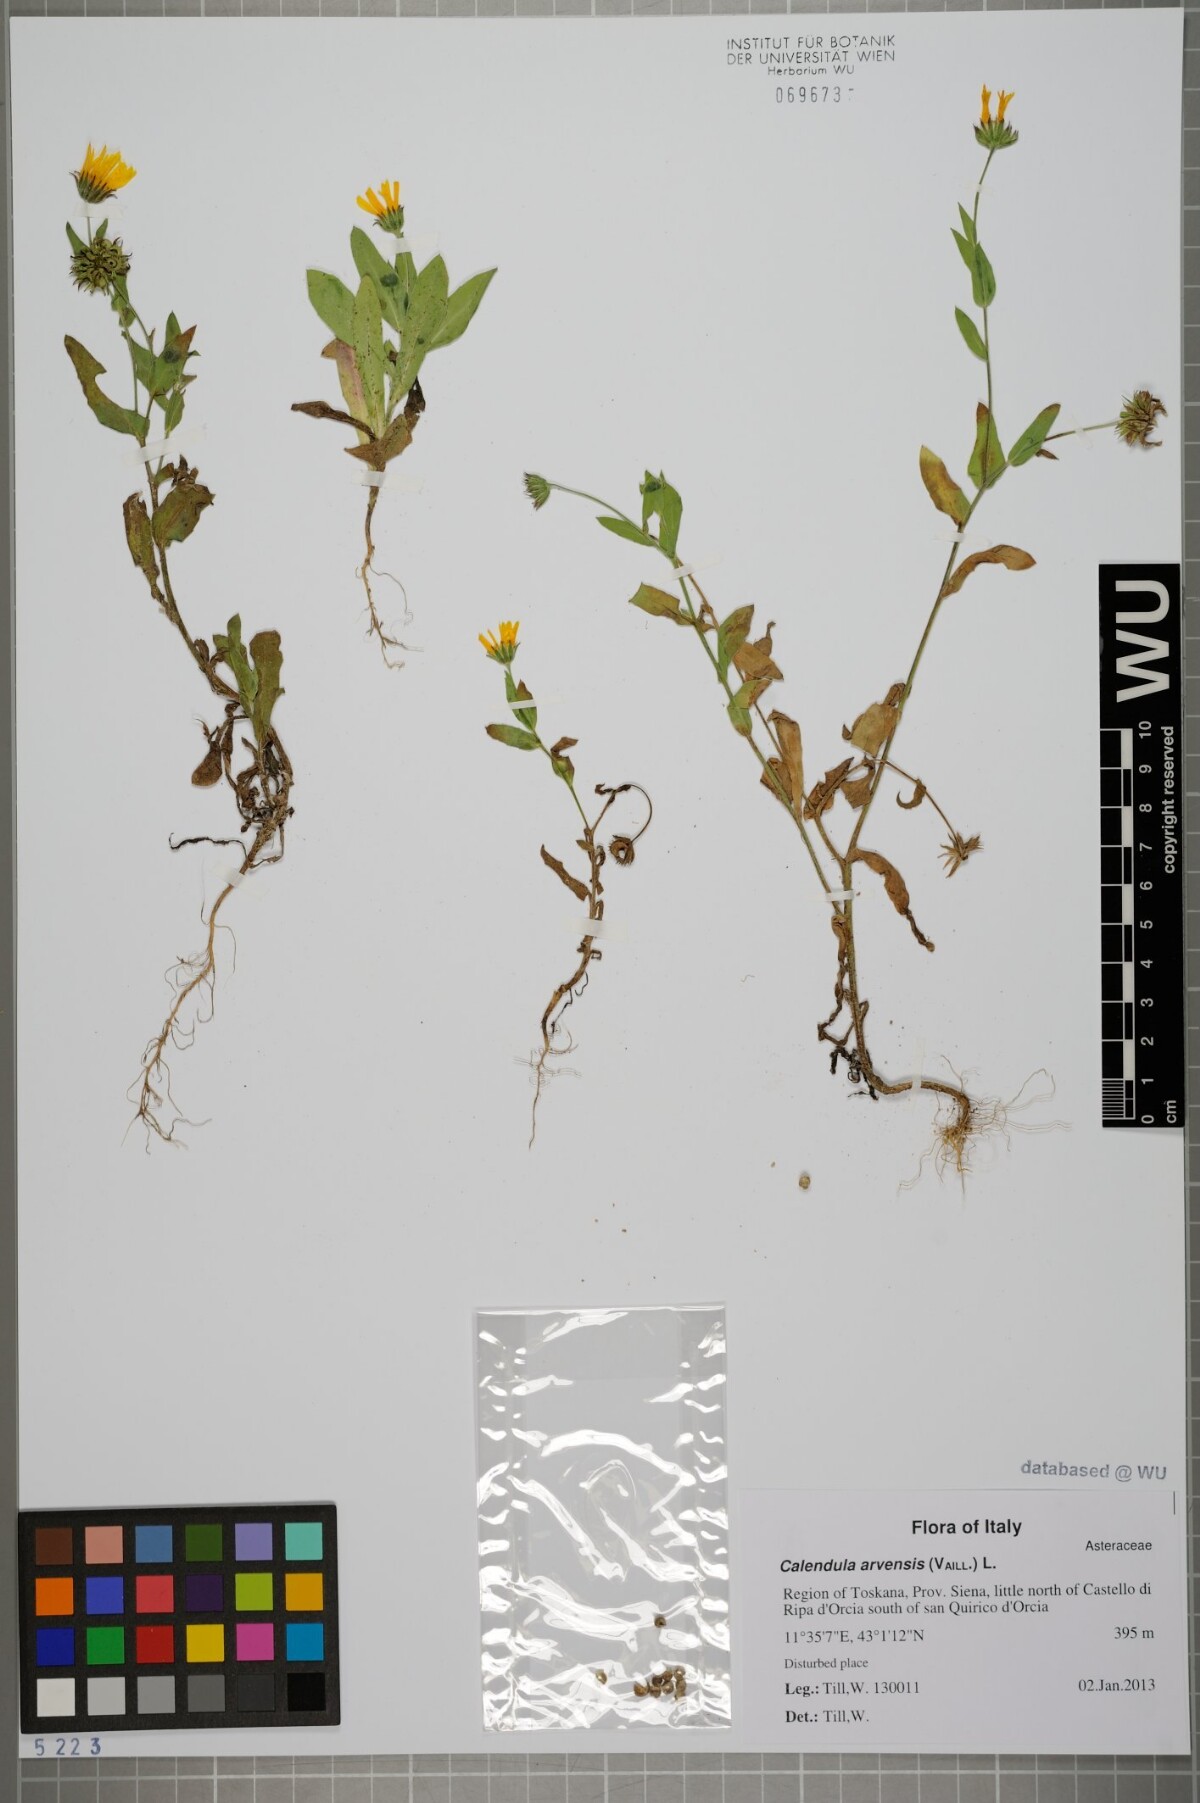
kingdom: Plantae
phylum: Tracheophyta
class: Magnoliopsida
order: Asterales
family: Asteraceae
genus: Calendula
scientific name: Calendula arvensis
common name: Field marigold
